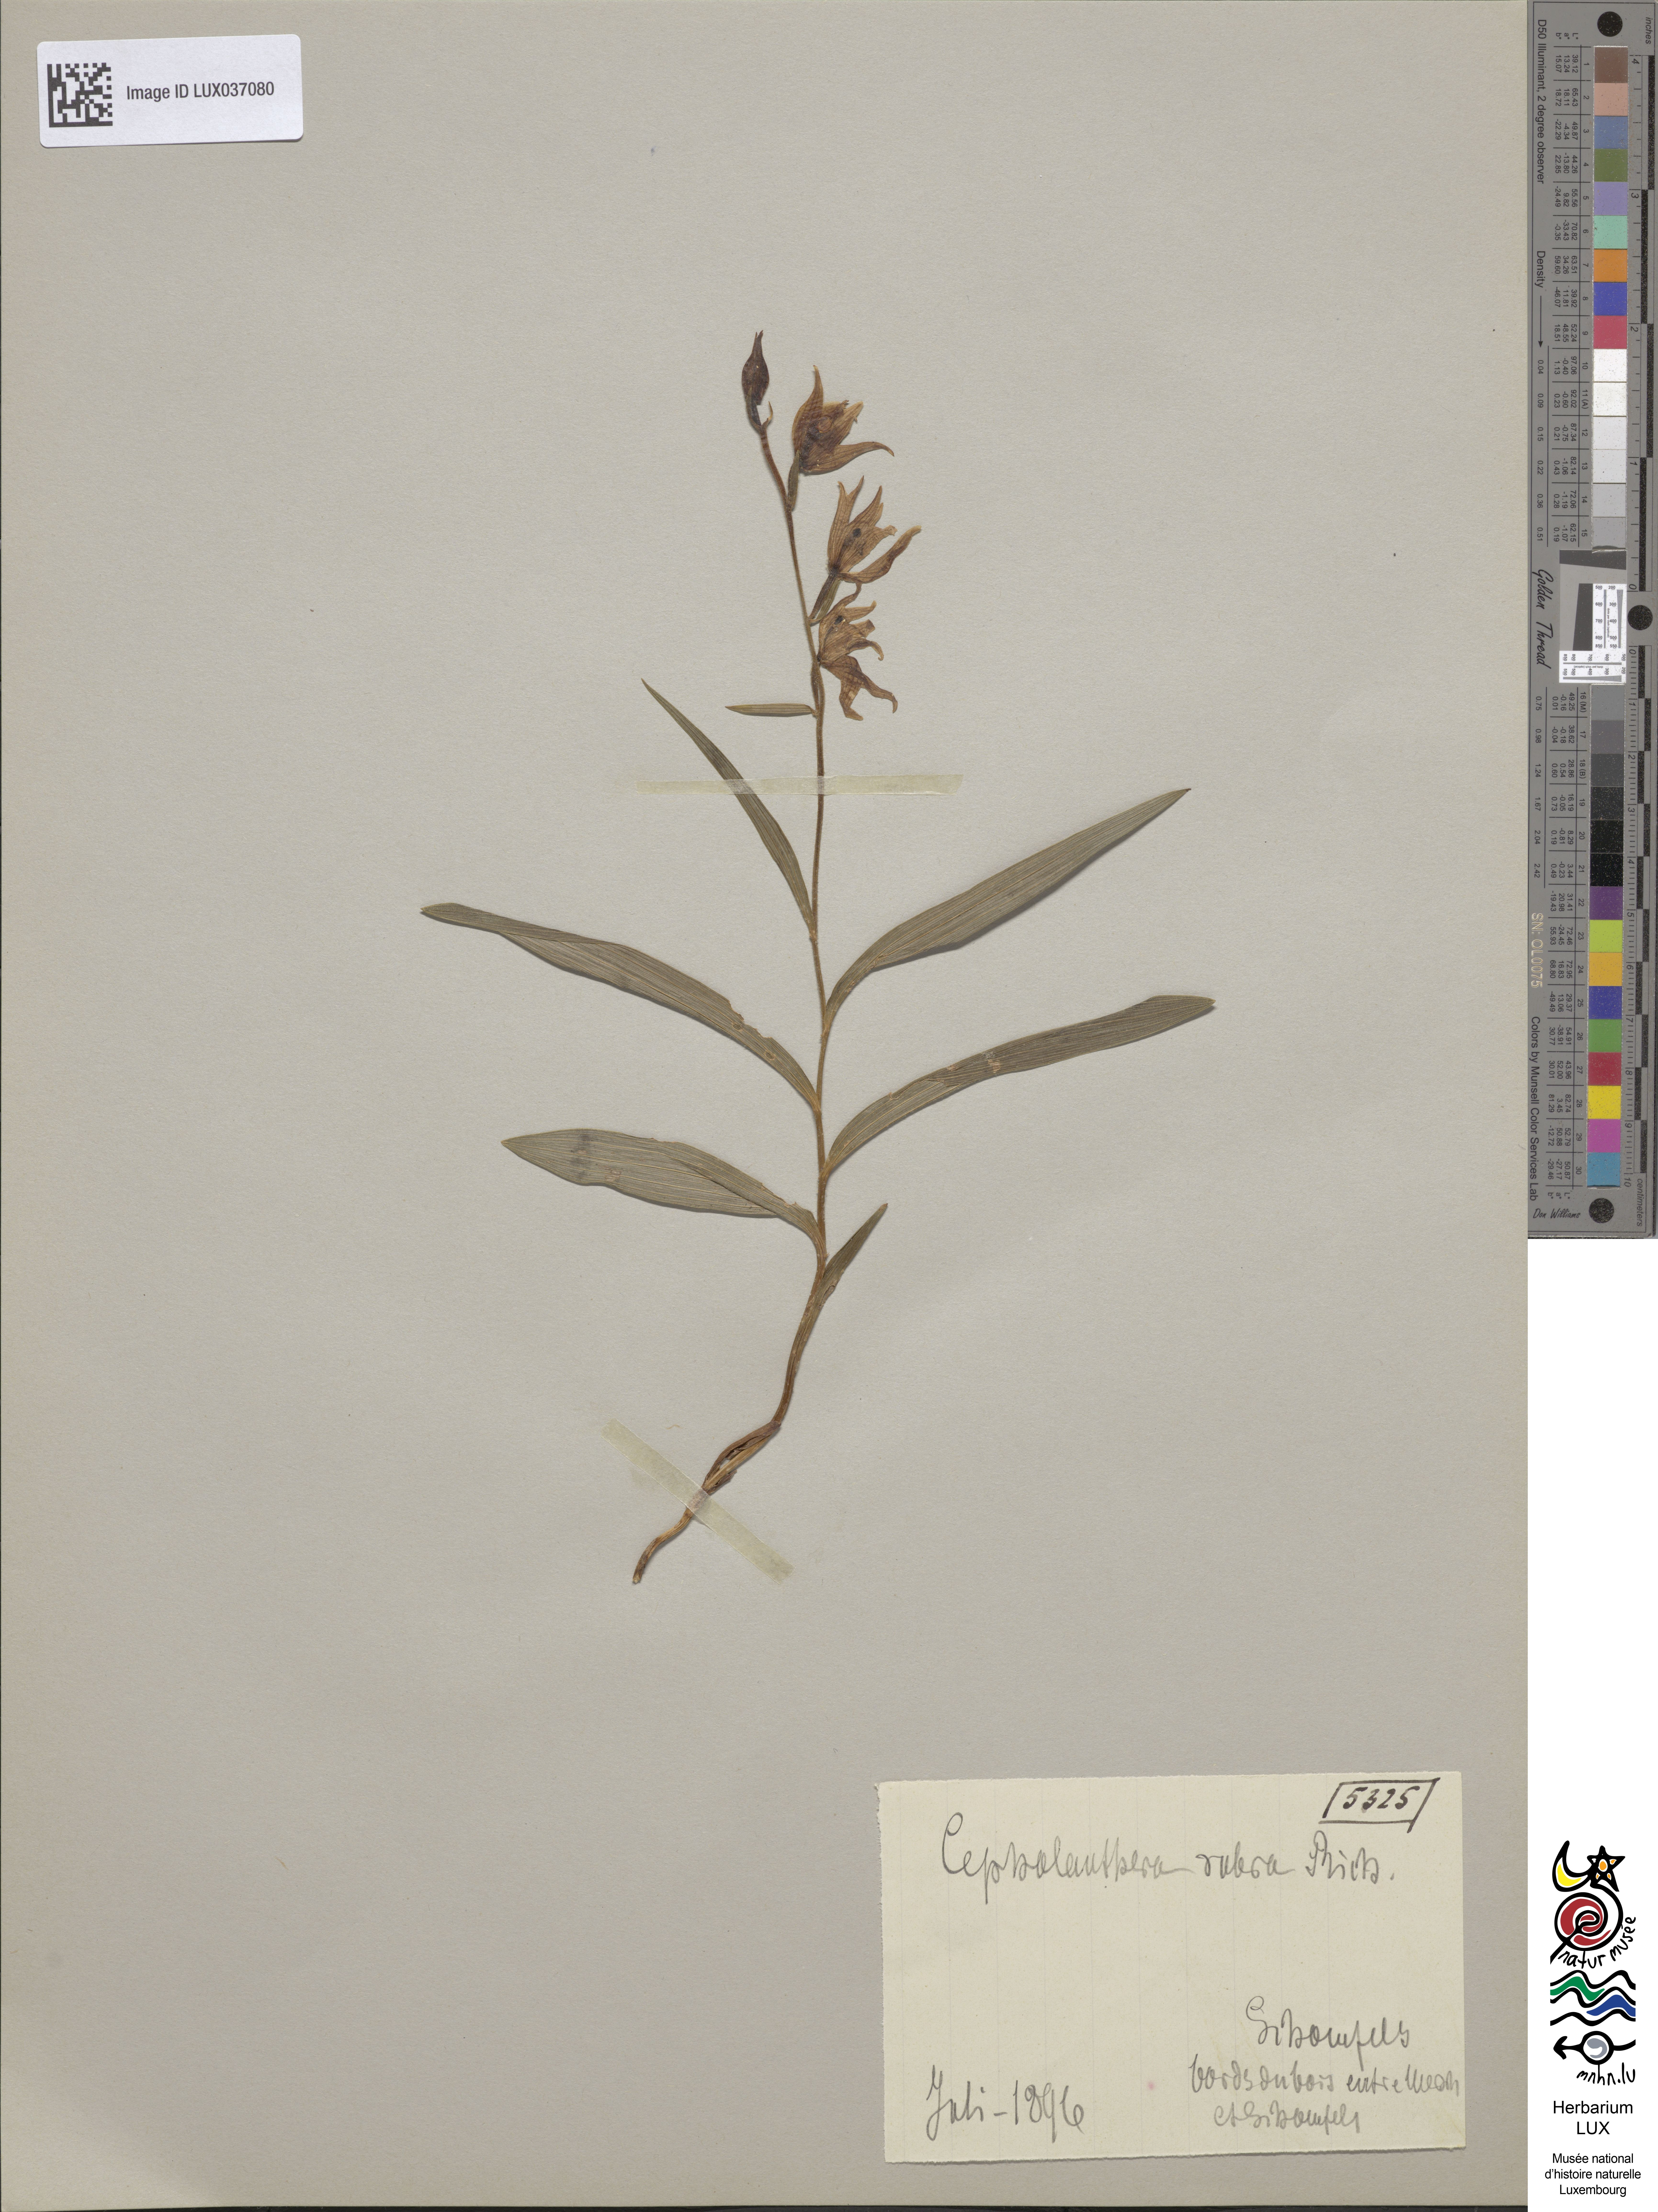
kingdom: Plantae
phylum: Tracheophyta
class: Liliopsida
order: Asparagales
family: Orchidaceae
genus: Cephalanthera
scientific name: Cephalanthera rubra
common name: Red helleborine
